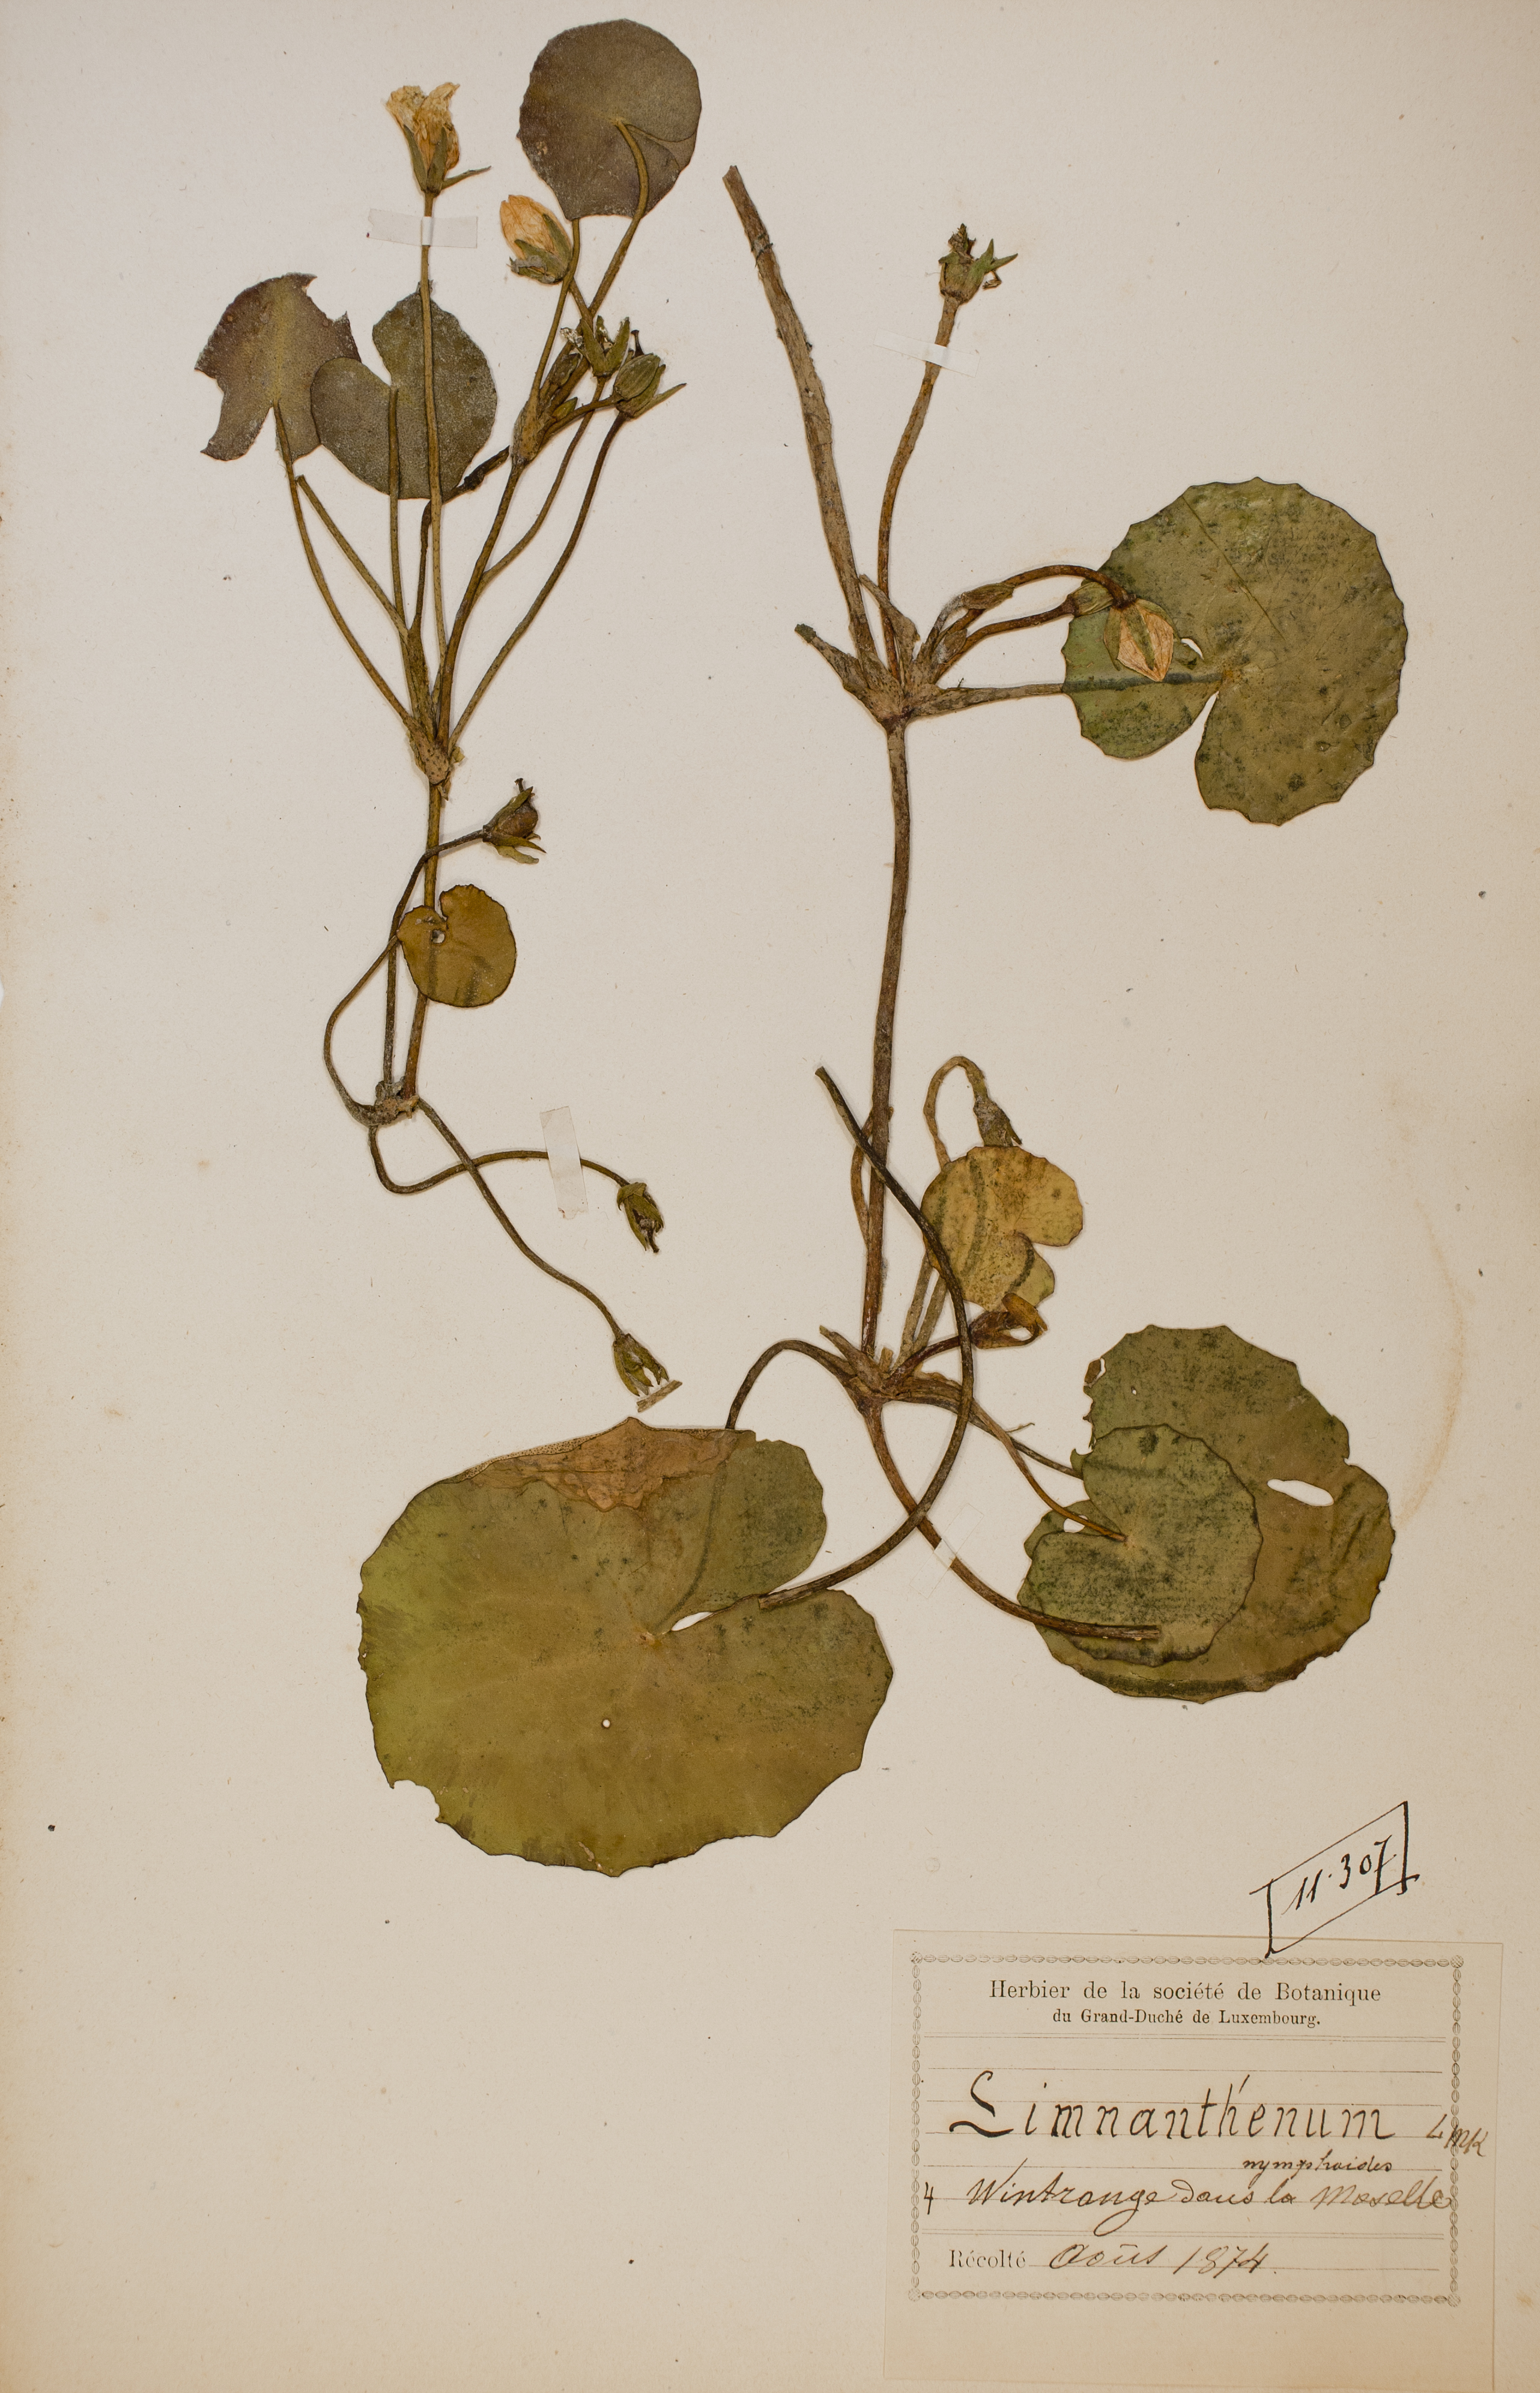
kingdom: Plantae
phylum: Tracheophyta
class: Magnoliopsida
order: Asterales
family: Menyanthaceae
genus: Nymphoides
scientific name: Nymphoides peltata
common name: Fringed water-lily
